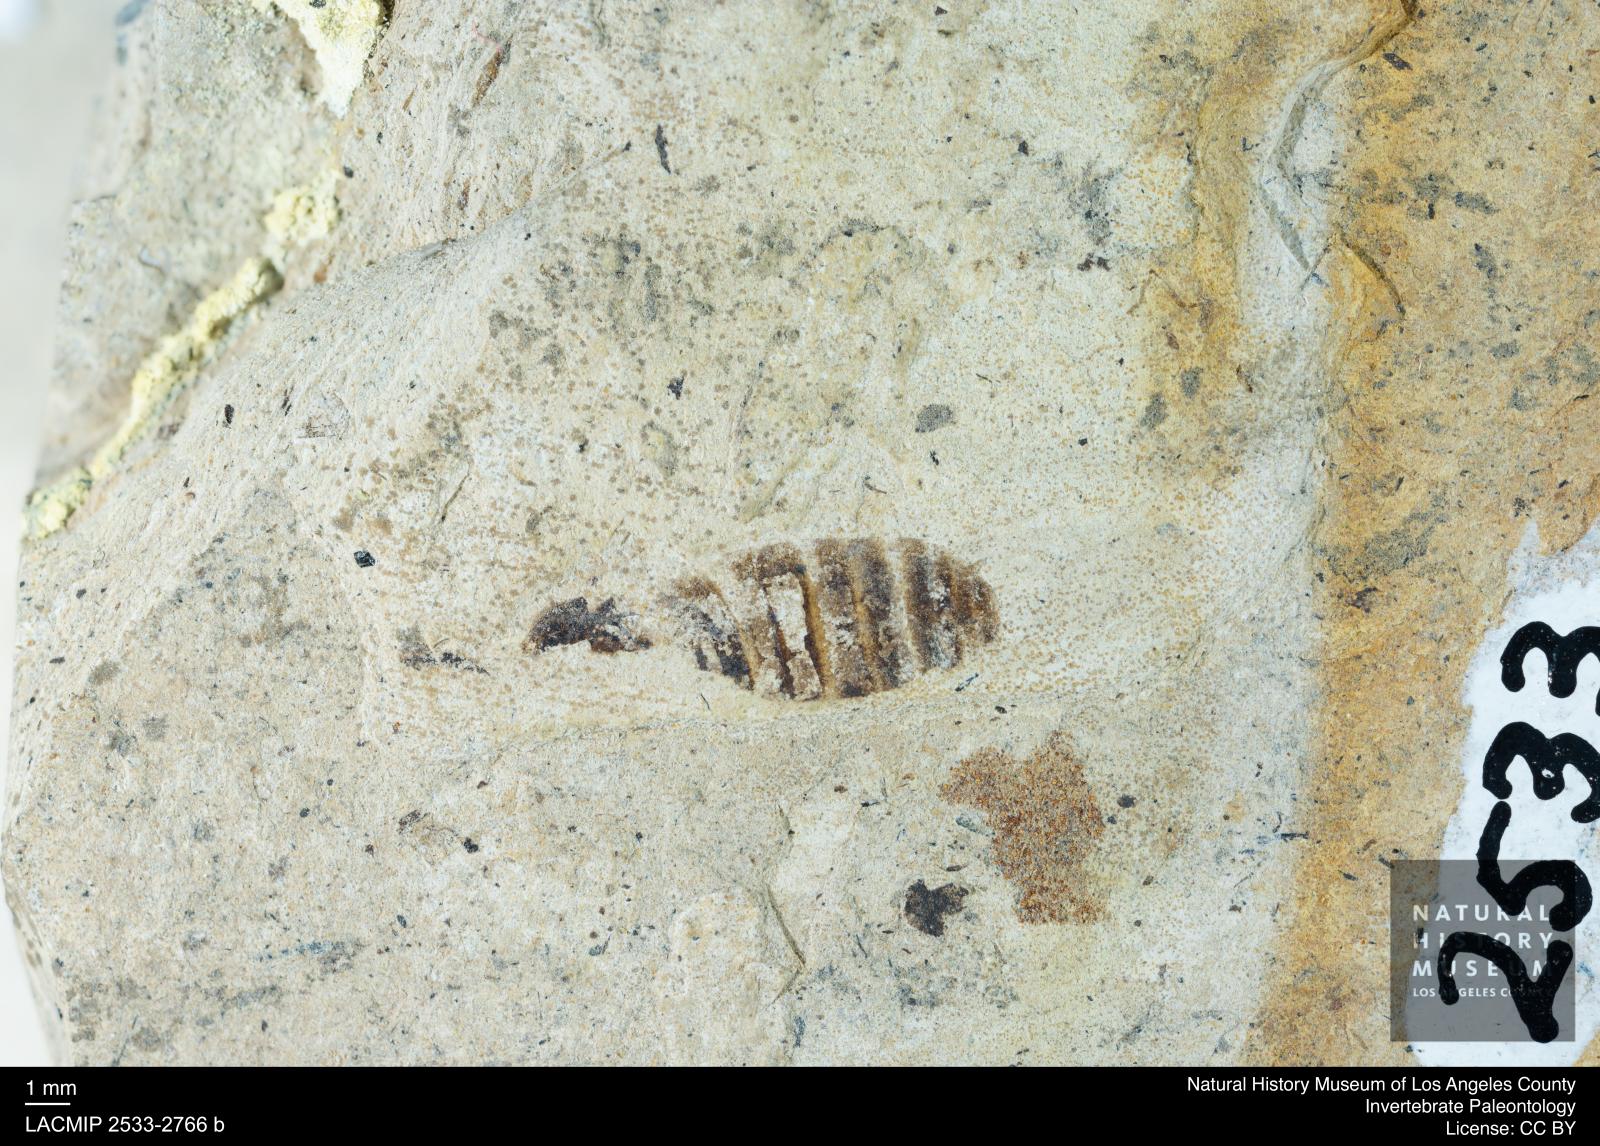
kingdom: Animalia
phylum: Arthropoda
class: Insecta
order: Blattodea
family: Hodotermitidae
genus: Ulmeriella
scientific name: Ulmeriella bauckhorni
